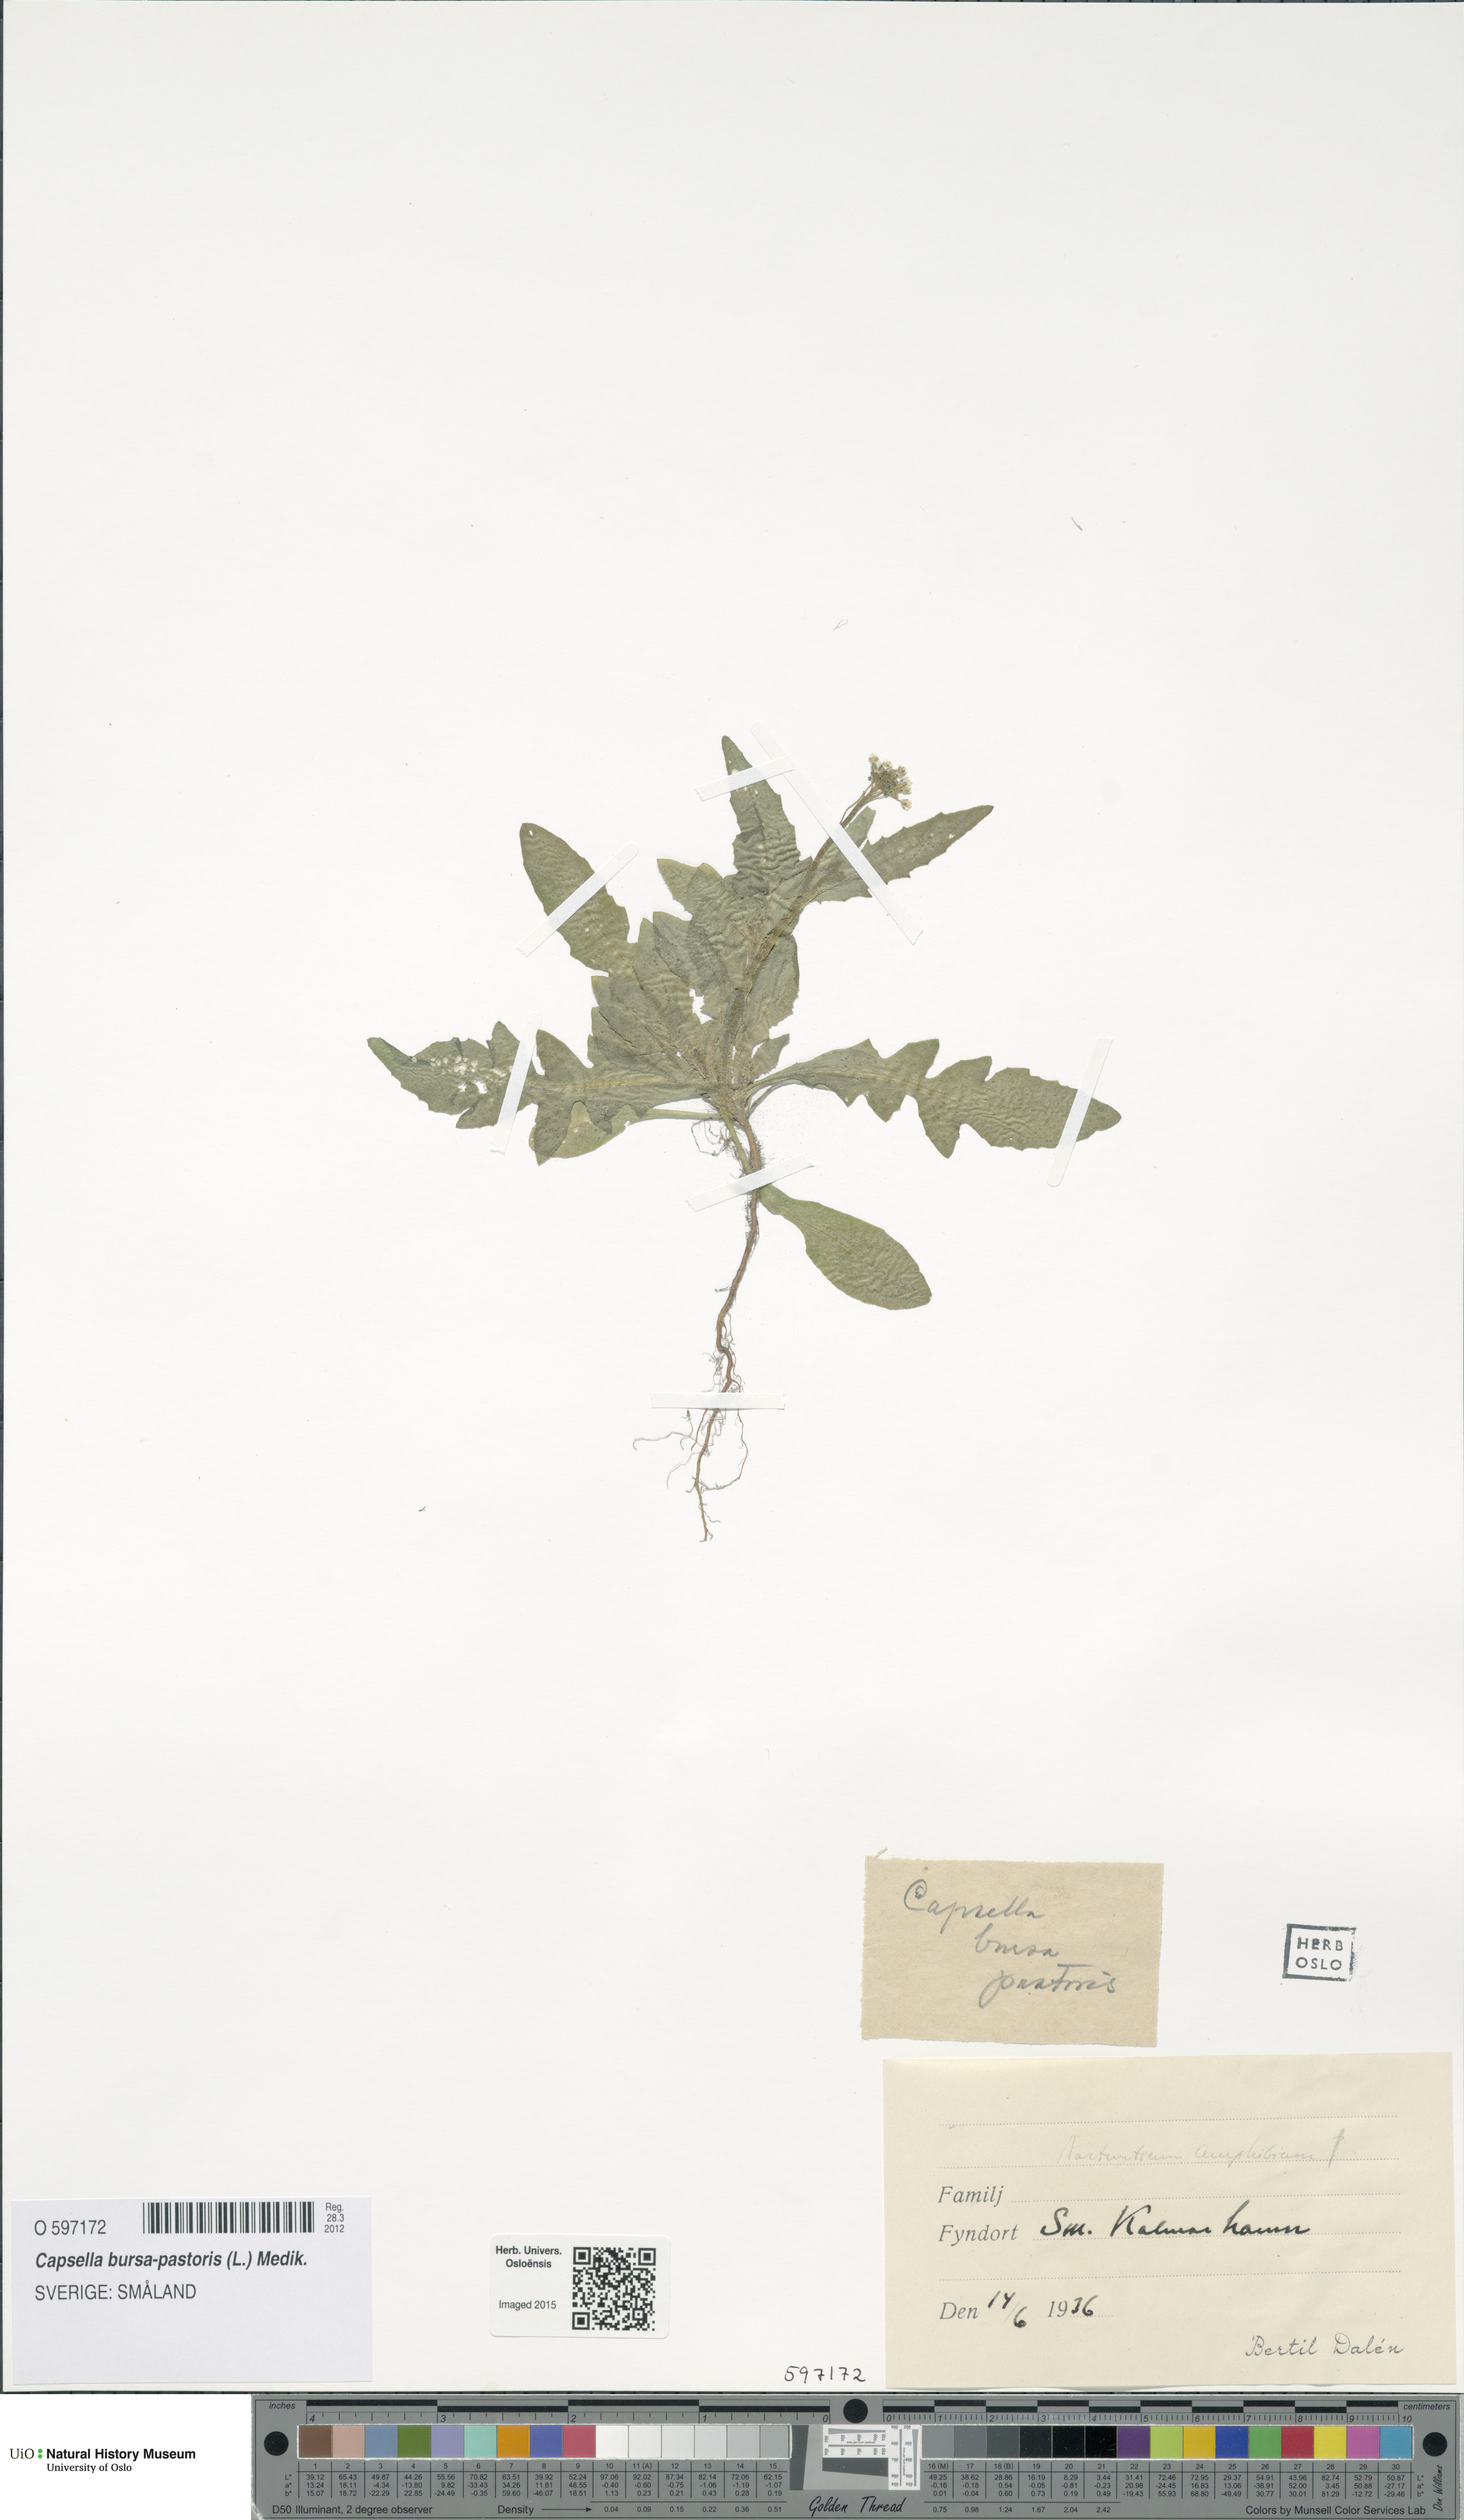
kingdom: Plantae
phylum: Tracheophyta
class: Magnoliopsida
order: Brassicales
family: Brassicaceae
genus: Capsella
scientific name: Capsella bursa-pastoris
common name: Shepherd's purse
